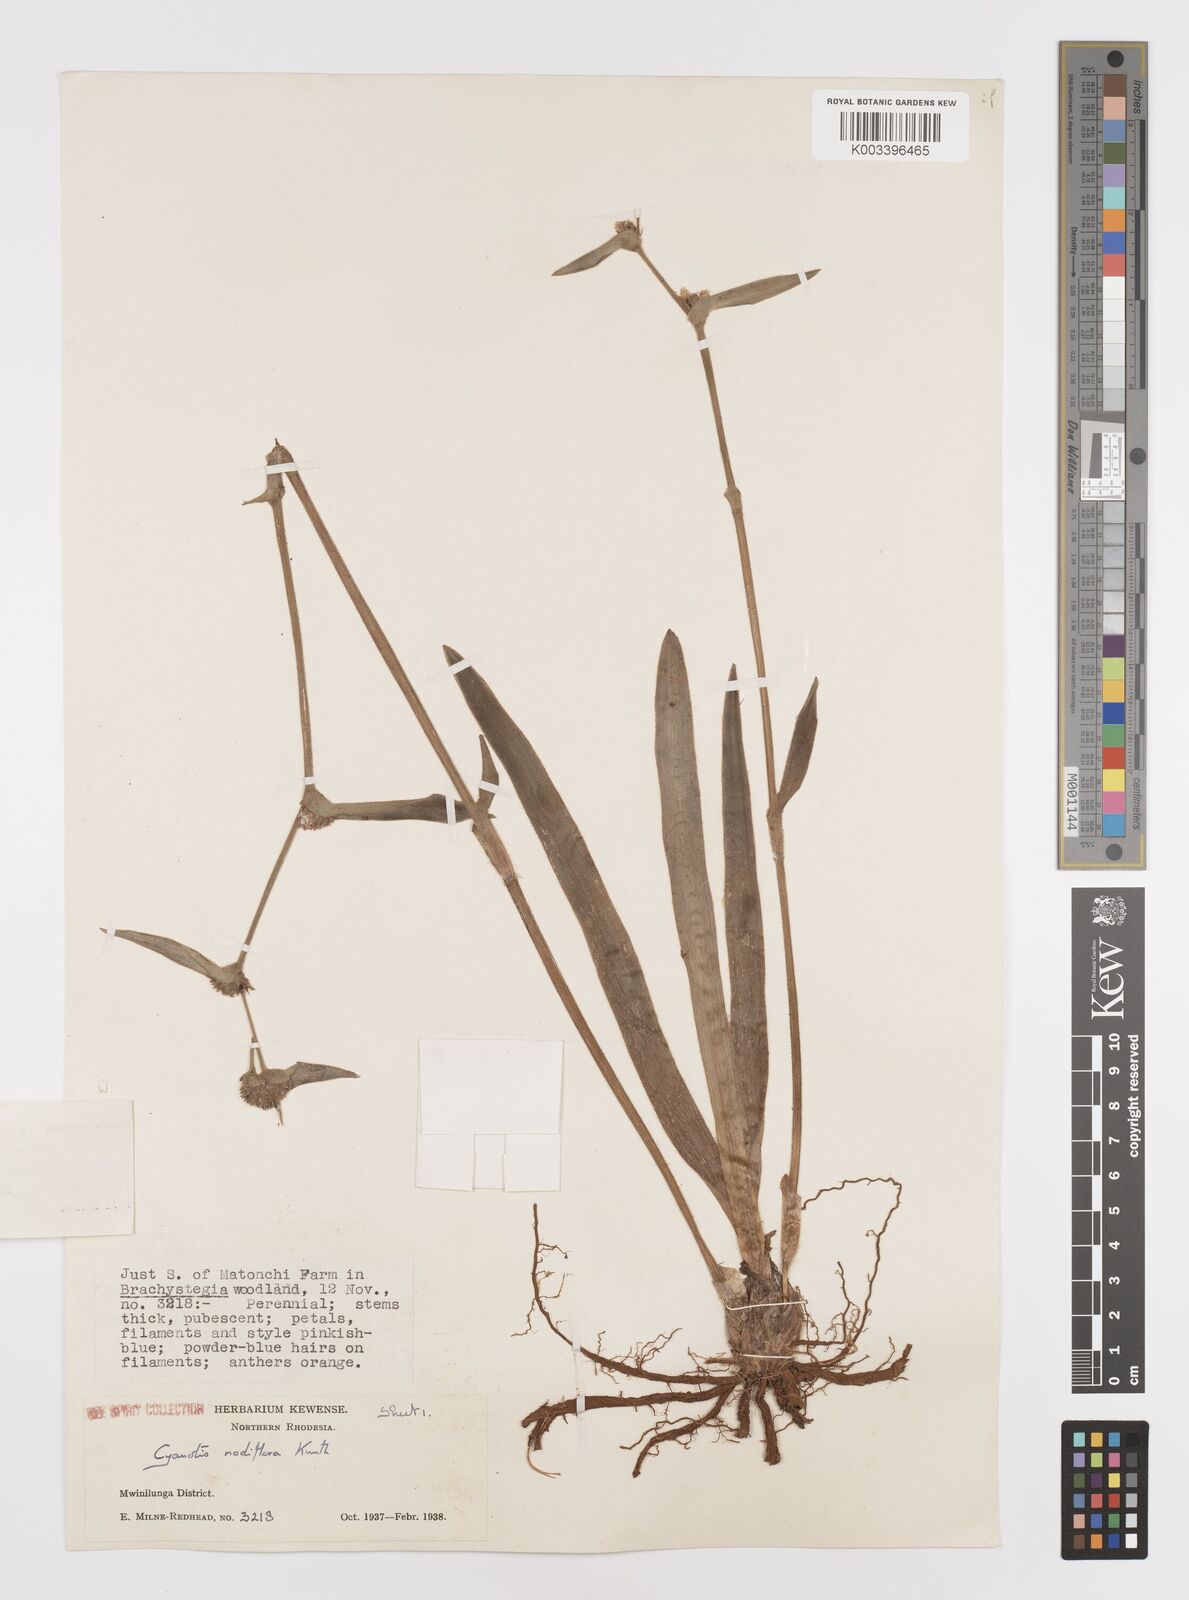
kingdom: Plantae
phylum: Tracheophyta
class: Liliopsida
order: Commelinales
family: Commelinaceae
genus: Cyanotis
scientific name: Cyanotis speciosa
